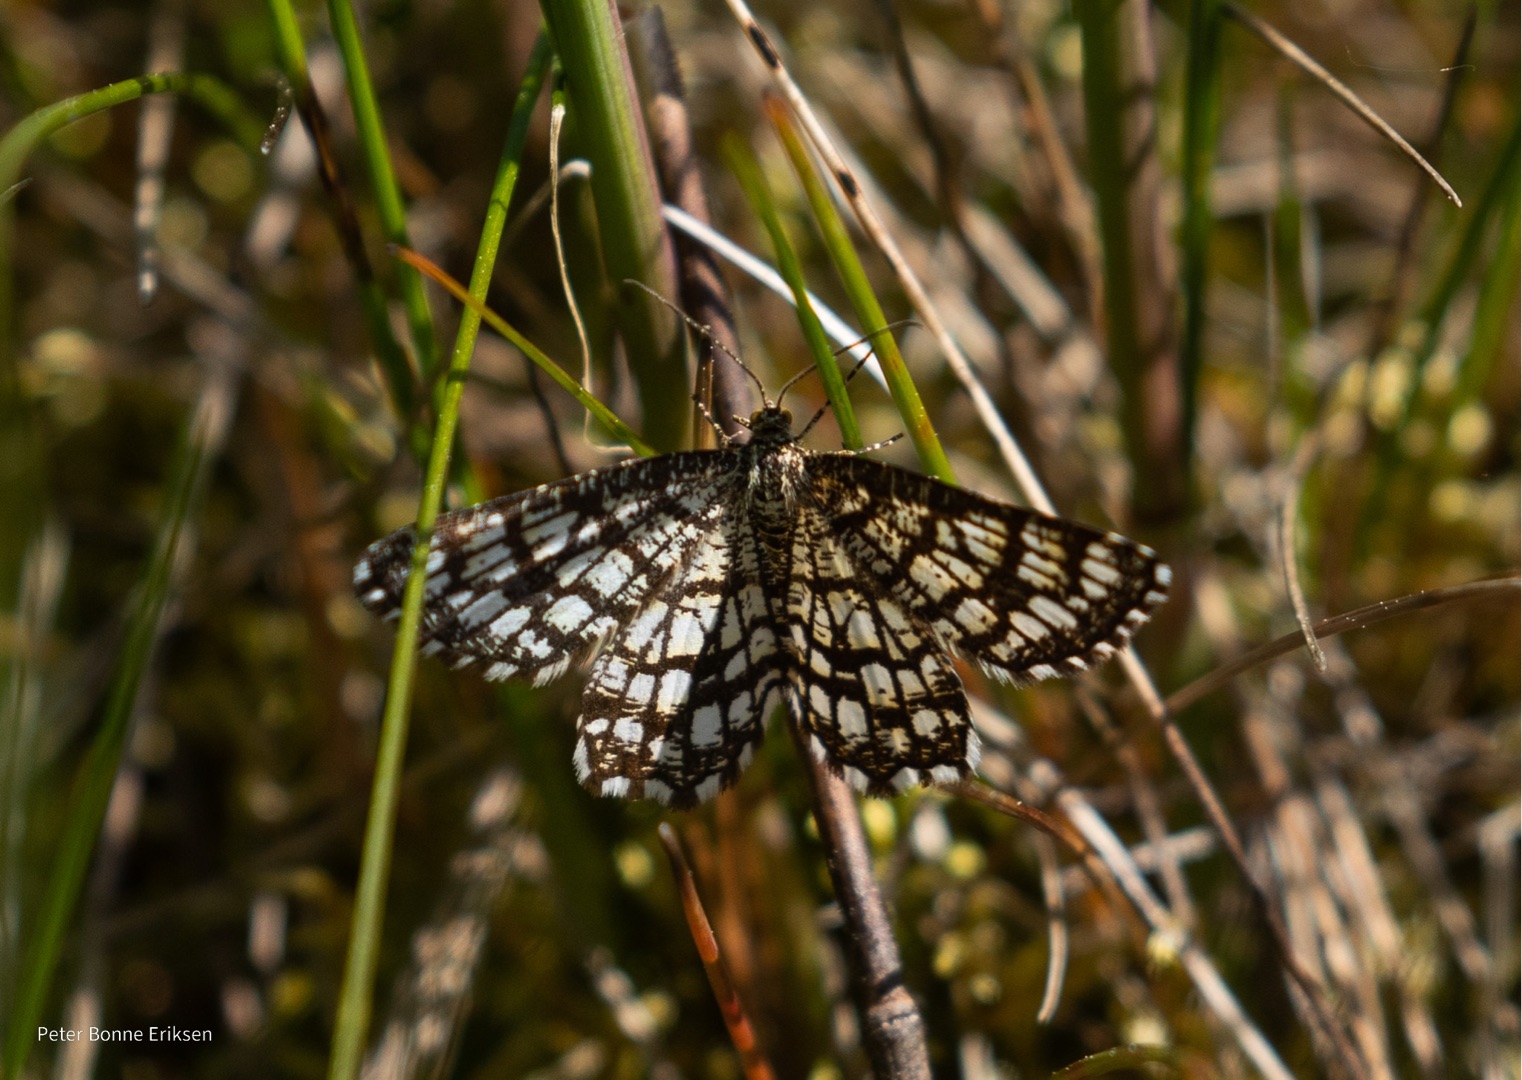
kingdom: Animalia
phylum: Arthropoda
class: Insecta
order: Lepidoptera
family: Geometridae
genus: Chiasmia
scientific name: Chiasmia clathrata
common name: Kløvermåler
